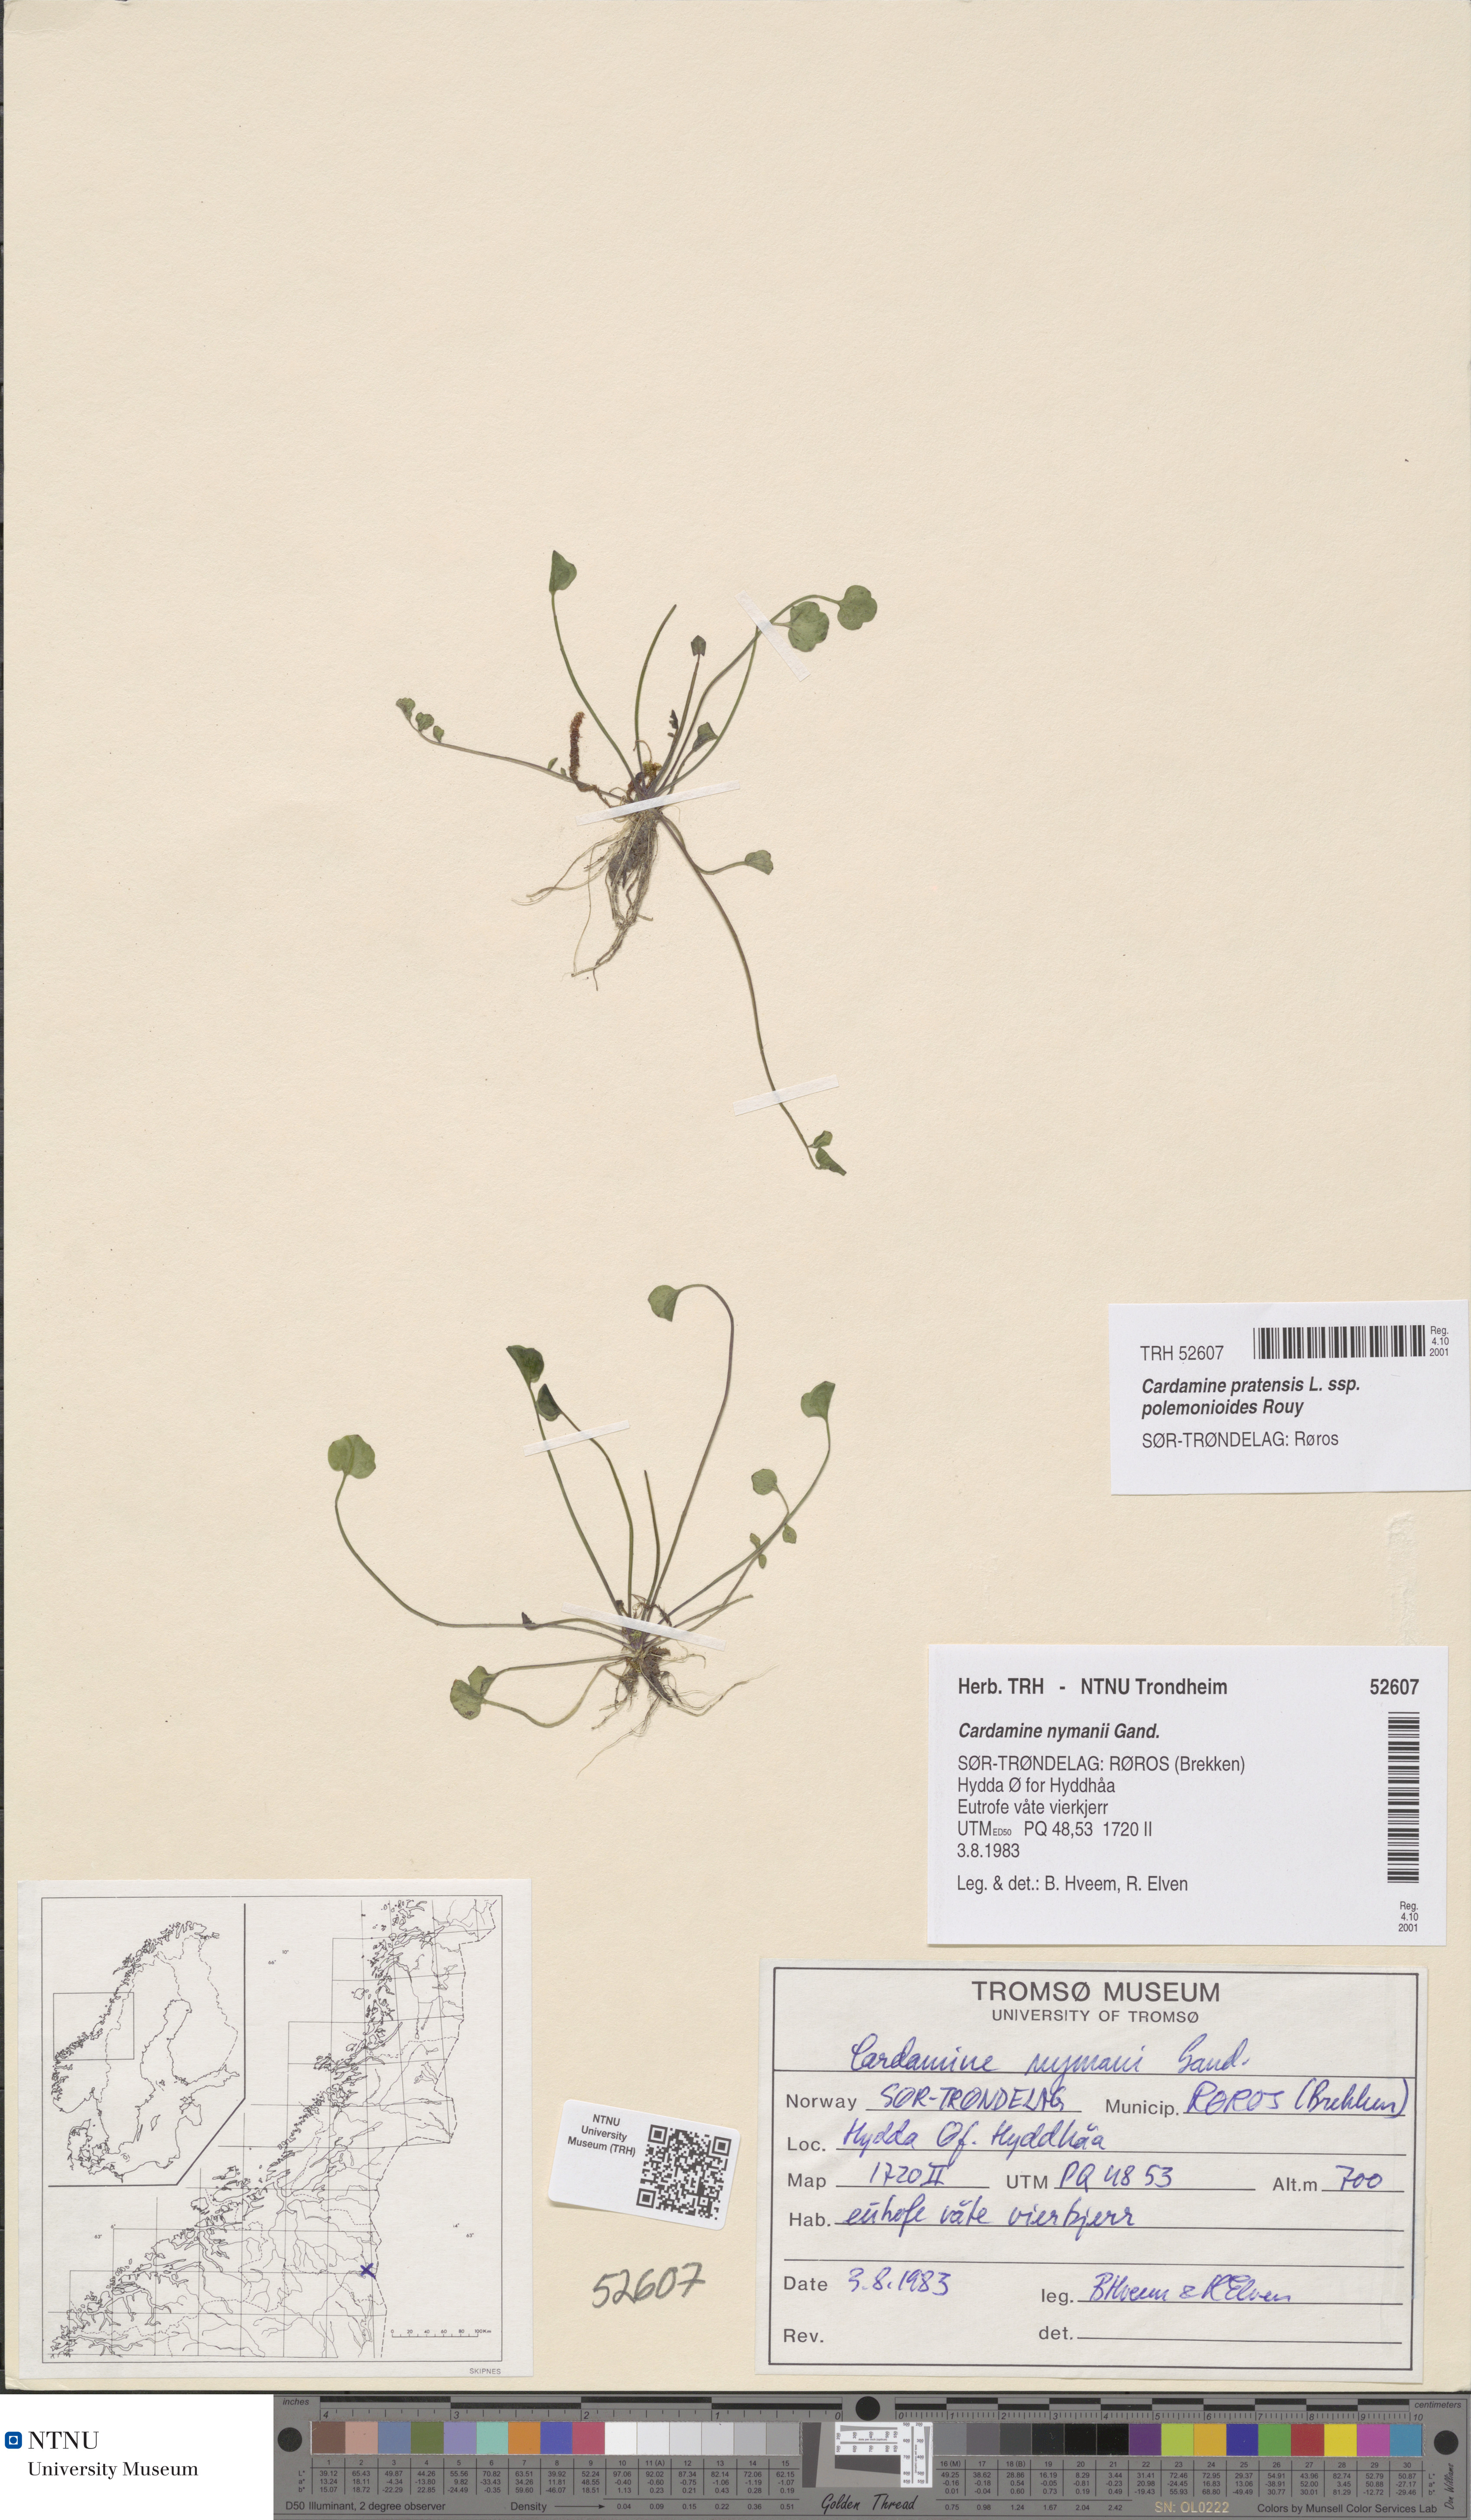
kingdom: Plantae
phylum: Tracheophyta
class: Magnoliopsida
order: Brassicales
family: Brassicaceae
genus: Cardamine
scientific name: Cardamine nymanii
